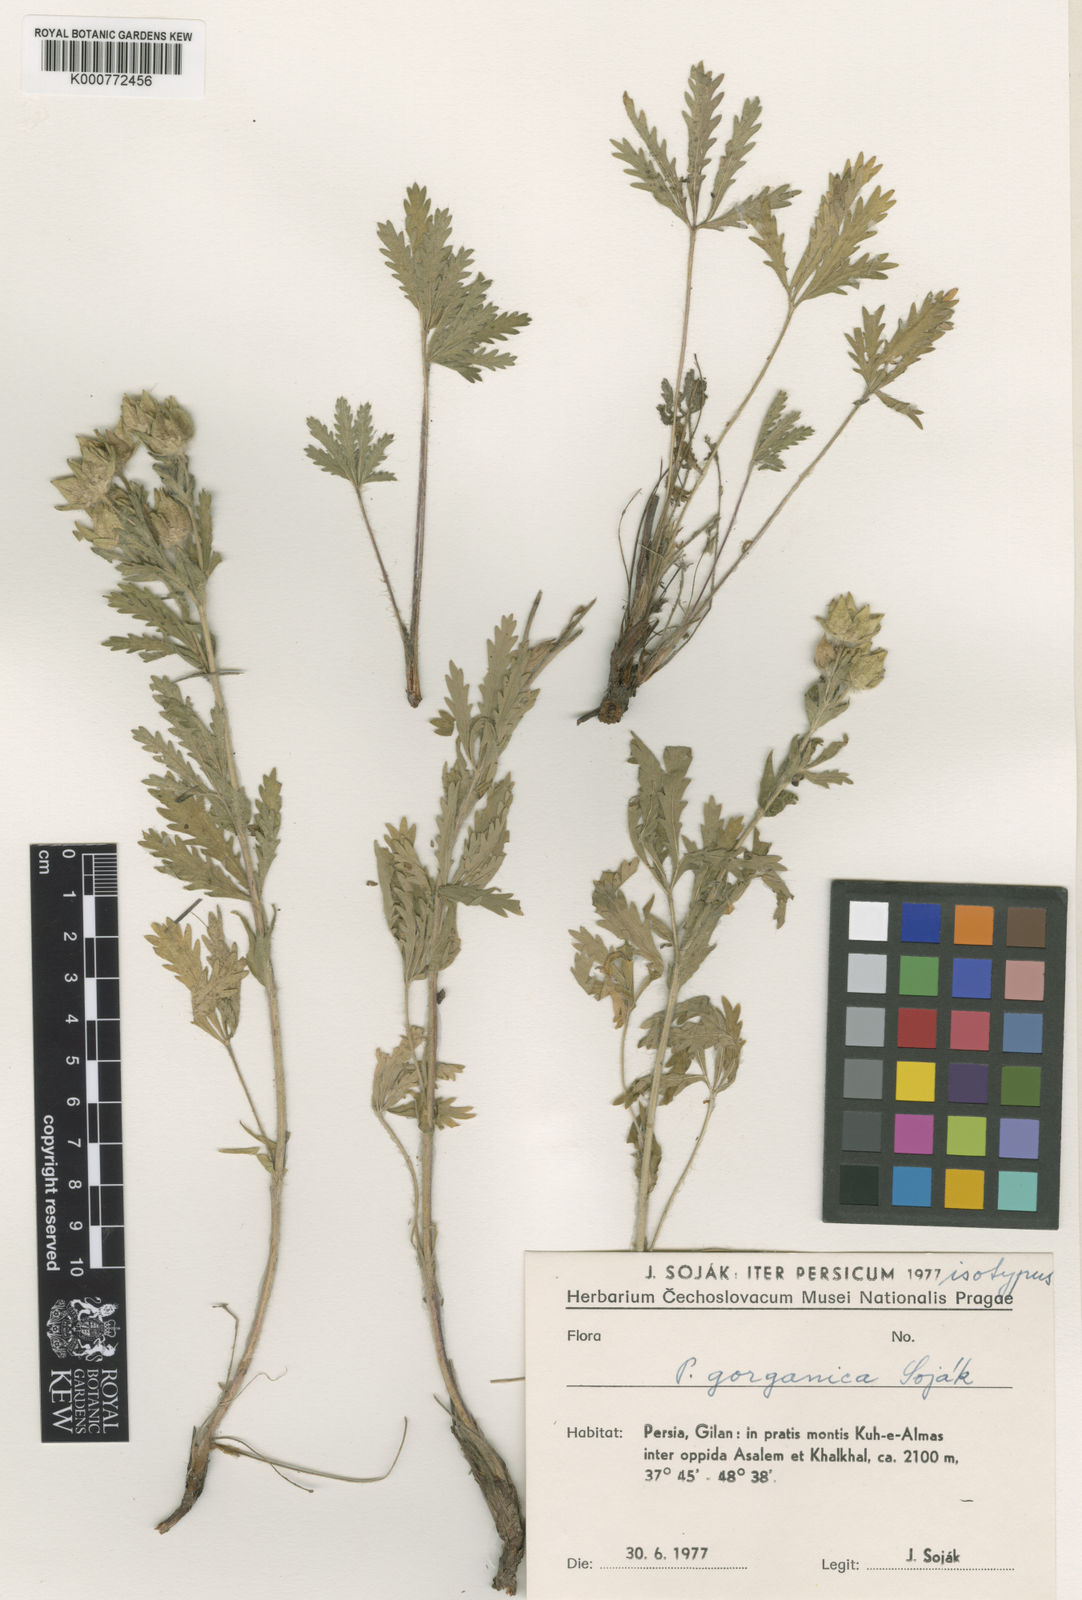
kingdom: Plantae
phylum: Tracheophyta
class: Magnoliopsida
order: Rosales
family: Rosaceae
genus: Potentilla
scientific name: Potentilla
